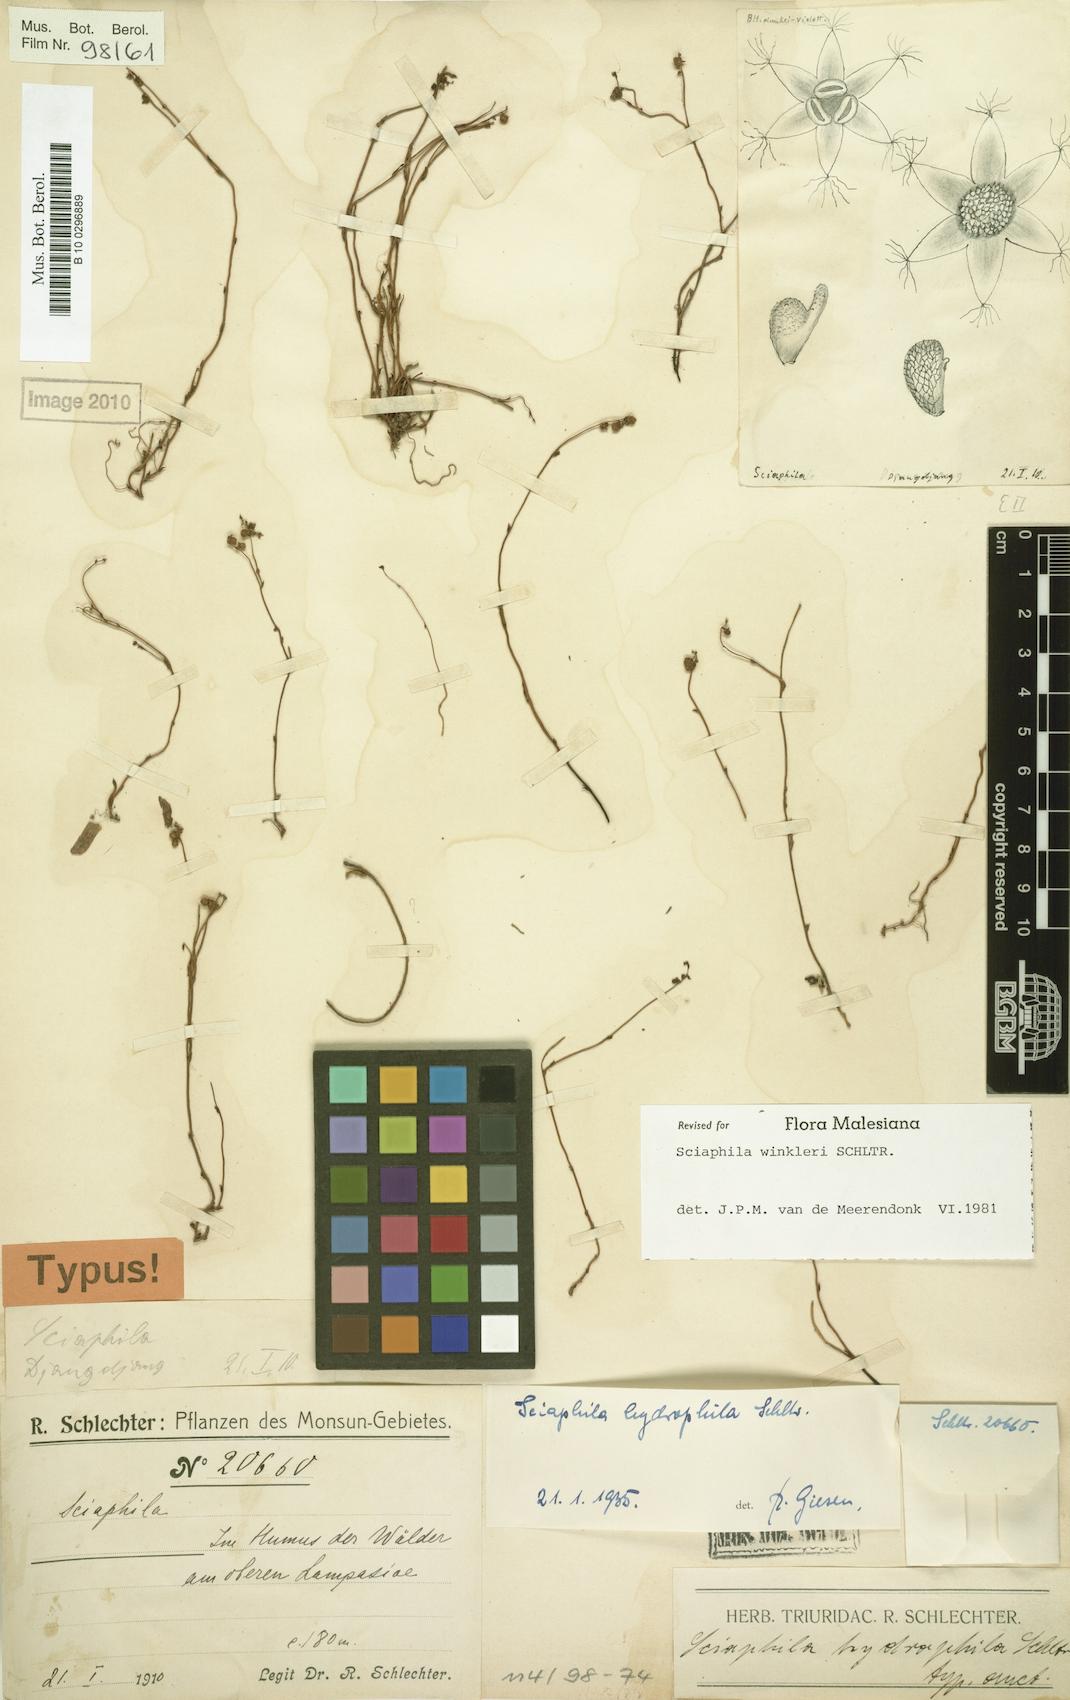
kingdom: Plantae
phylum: Tracheophyta
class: Liliopsida
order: Pandanales
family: Triuridaceae
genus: Sciaphila
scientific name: Sciaphila winkleri
